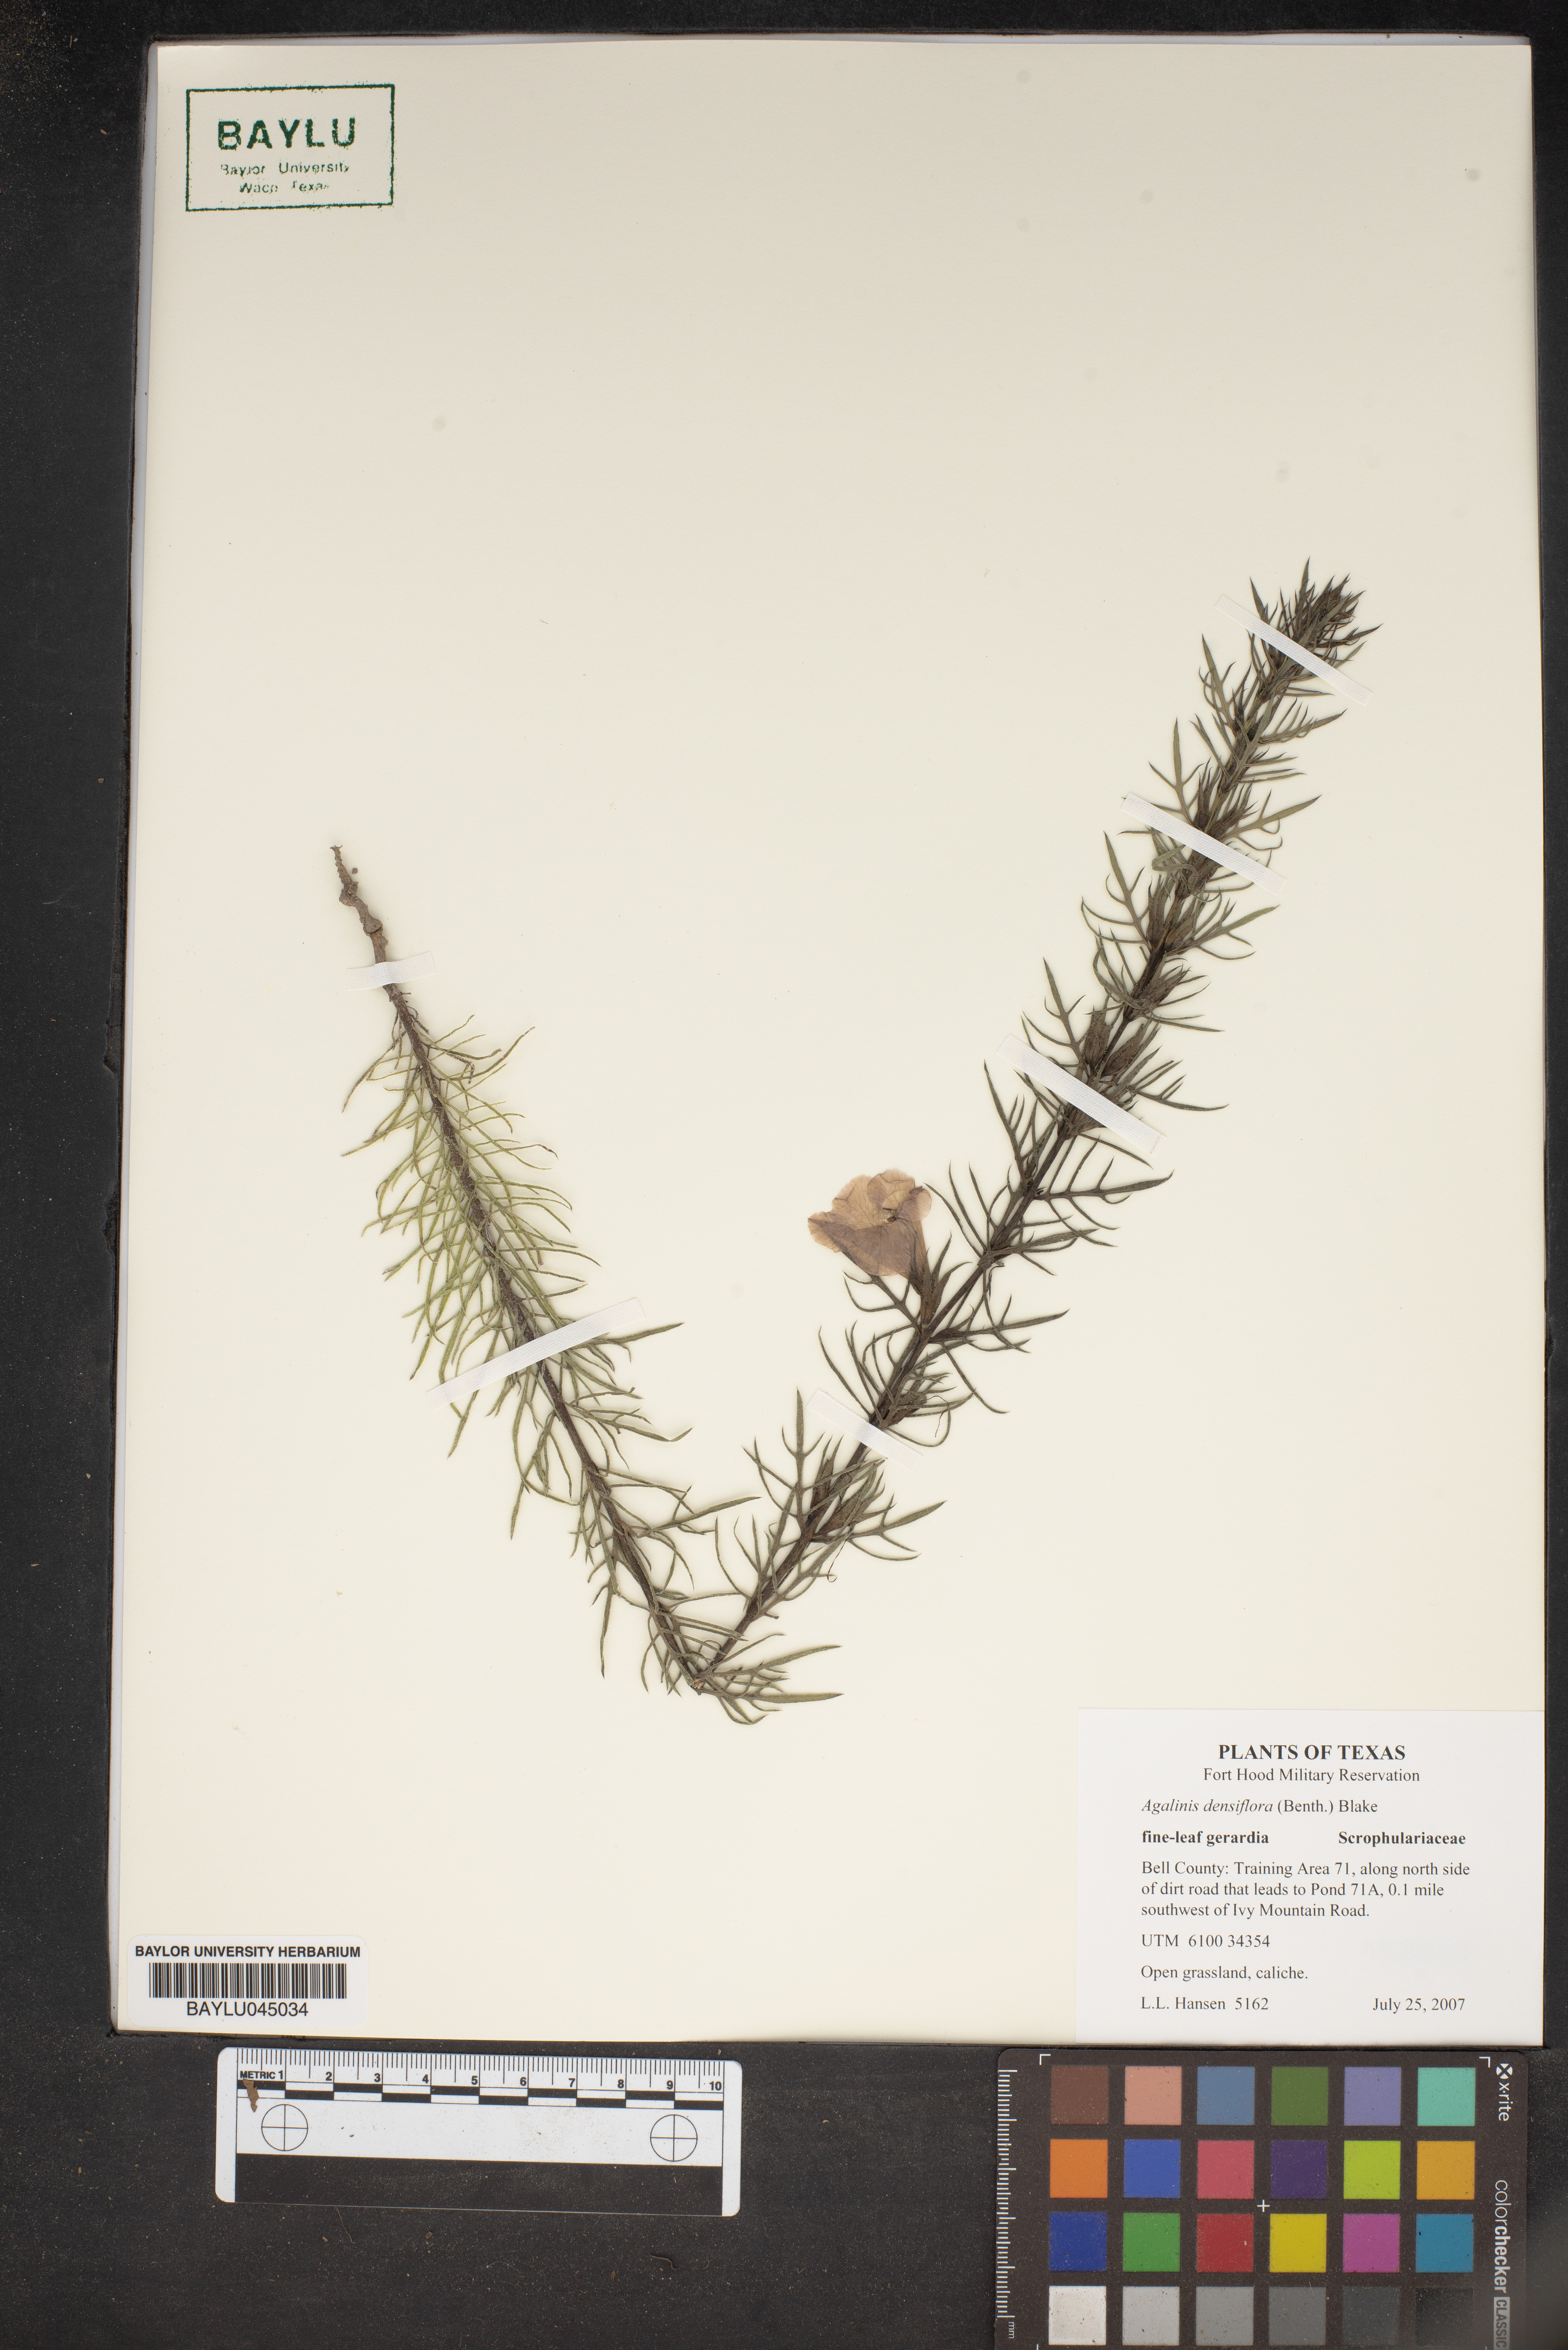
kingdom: Plantae
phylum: Tracheophyta
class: Magnoliopsida
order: Lamiales
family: Orobanchaceae
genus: Agalinis
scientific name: Agalinis densiflora
